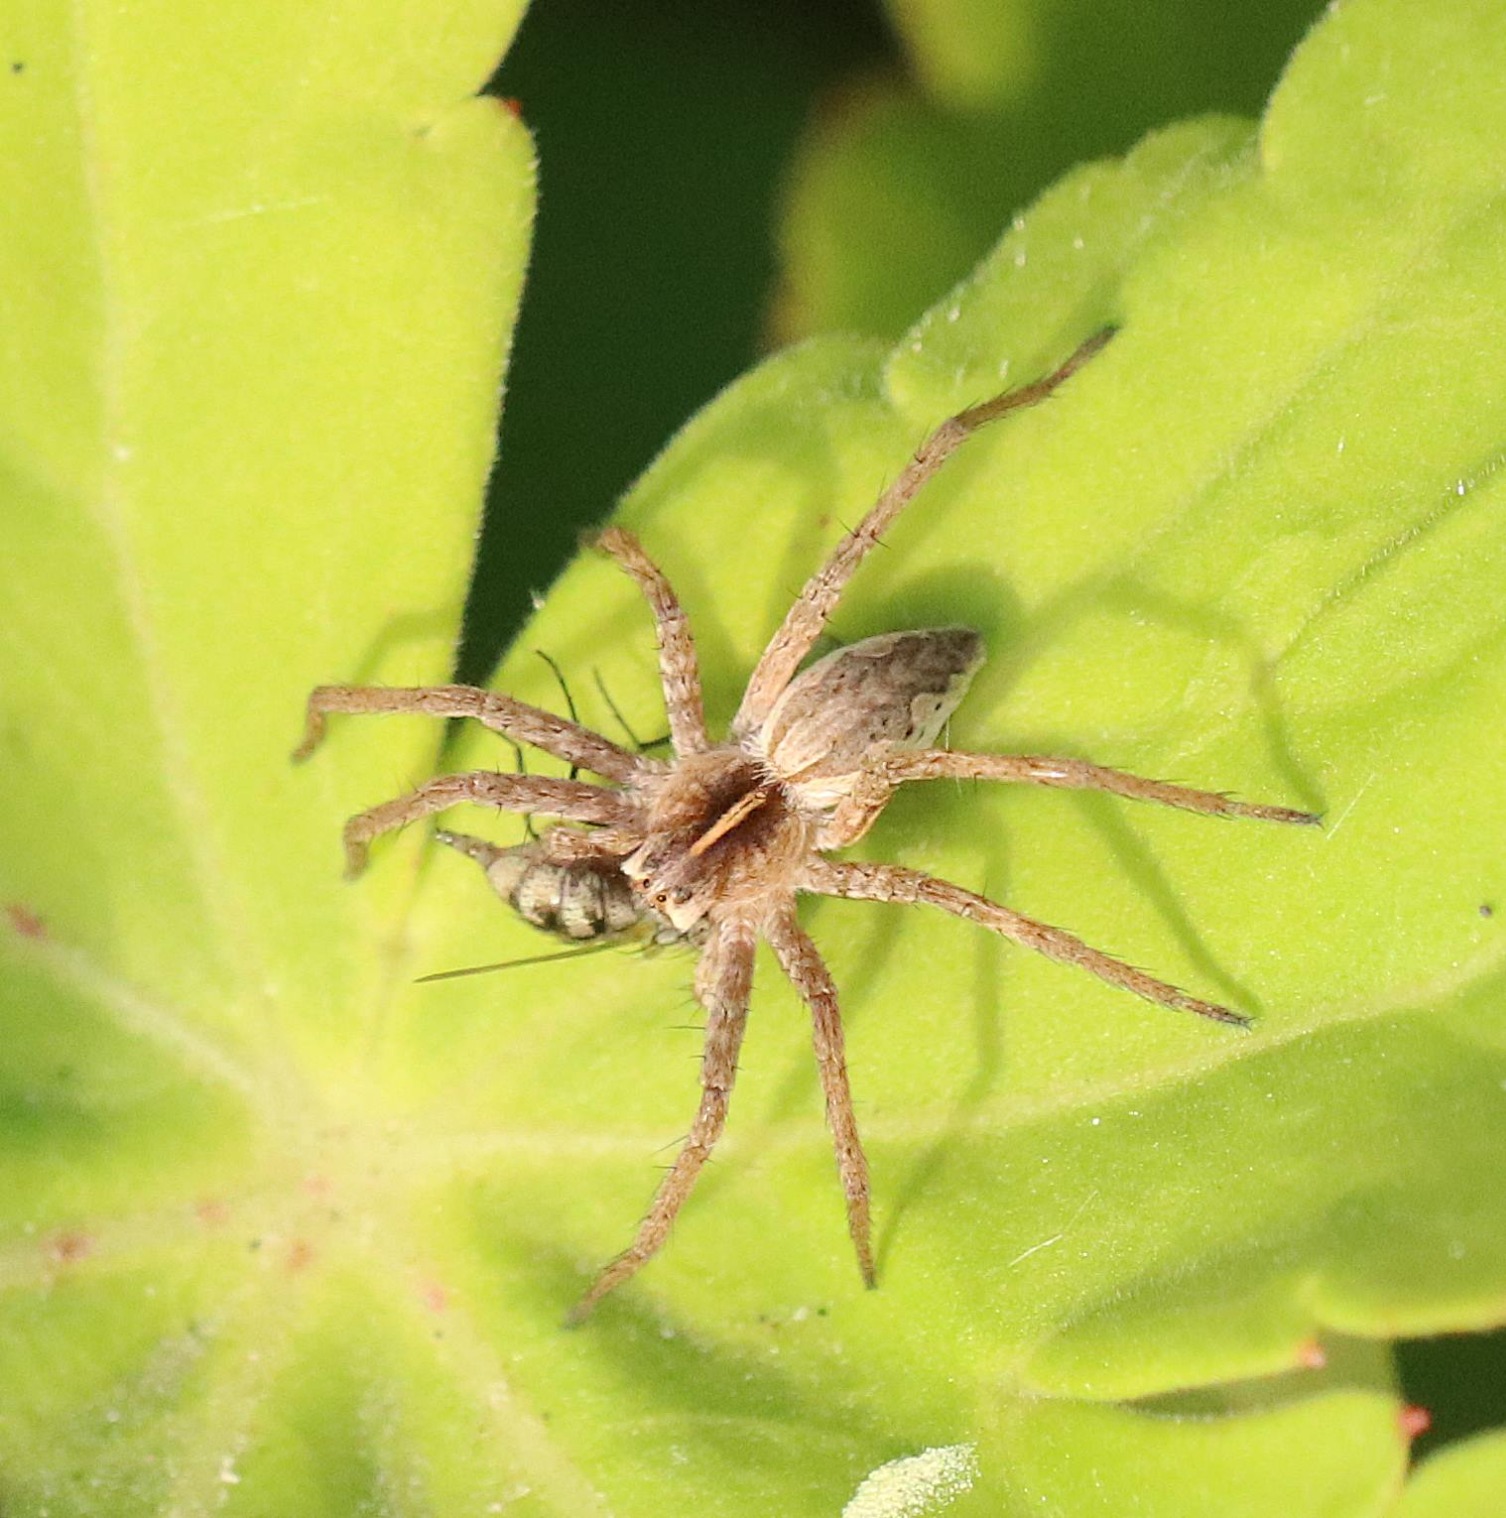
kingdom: Animalia
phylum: Arthropoda
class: Arachnida
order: Araneae
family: Pisauridae
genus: Pisaura
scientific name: Pisaura mirabilis
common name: Almindelig rovedderkop
